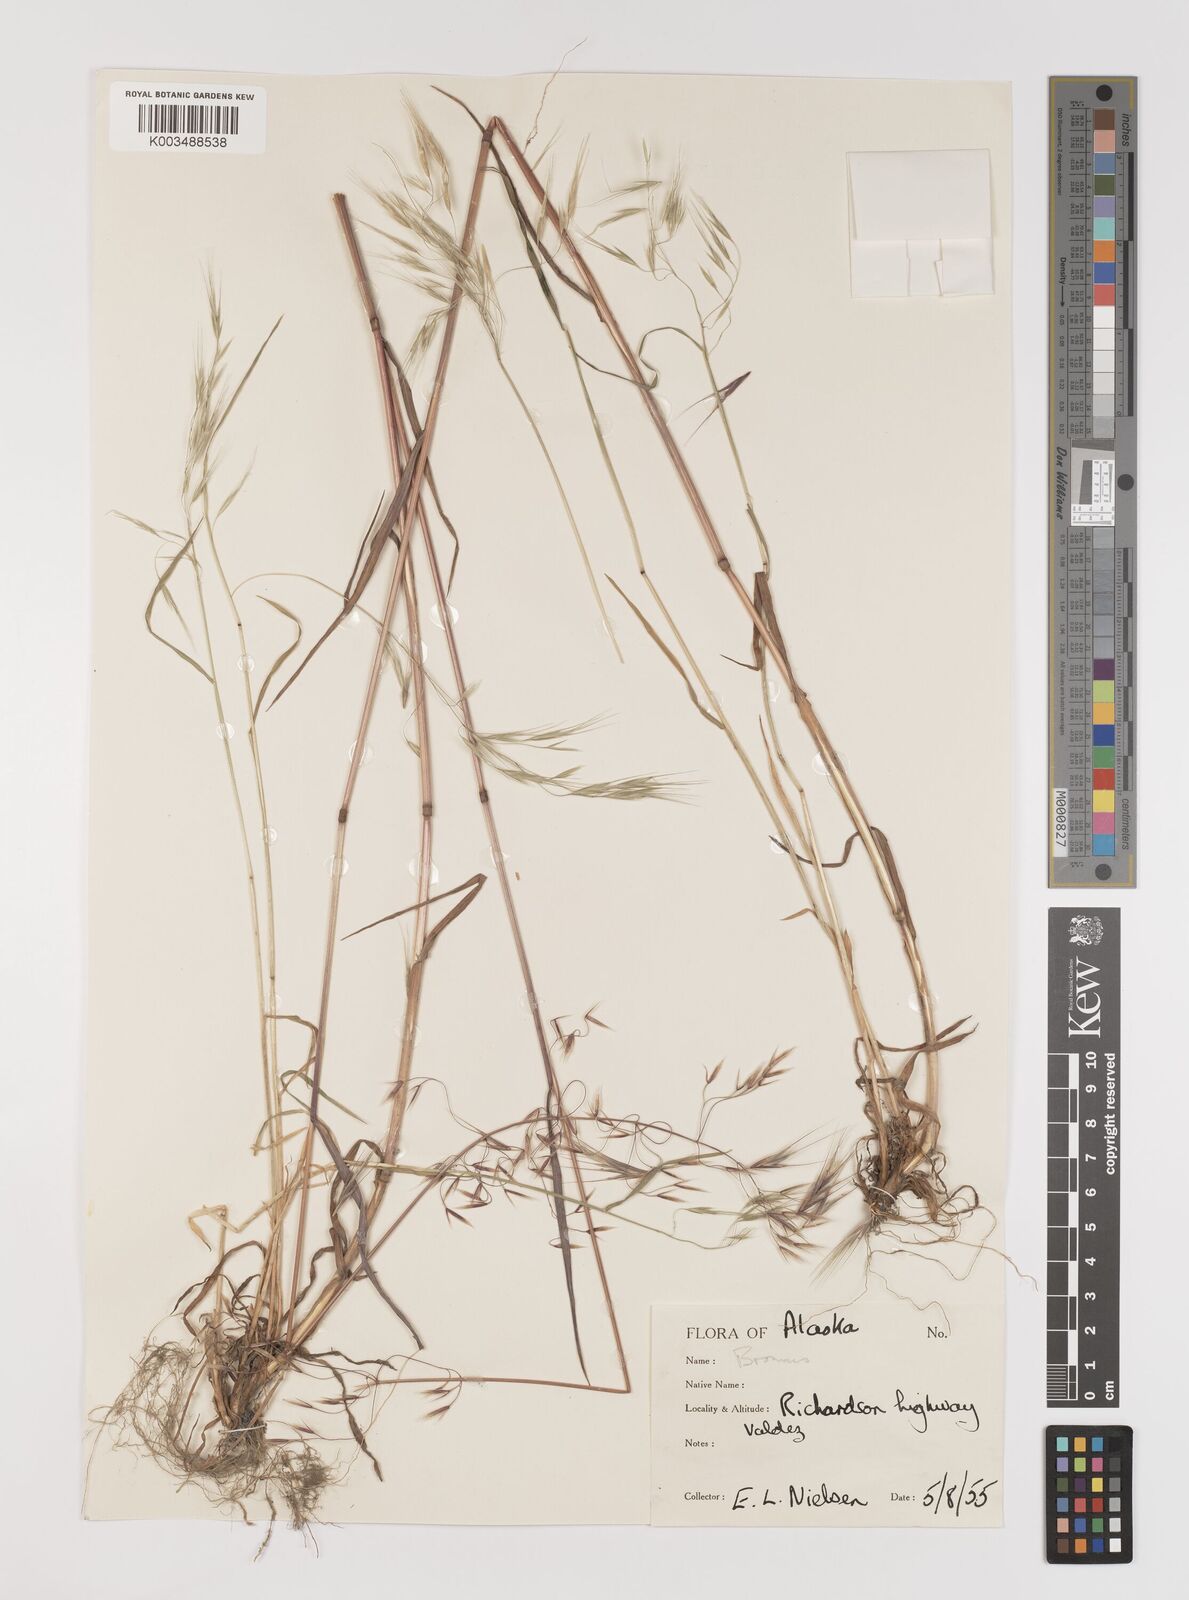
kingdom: Plantae
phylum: Tracheophyta
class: Liliopsida
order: Poales
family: Poaceae
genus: Bromus
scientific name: Bromus tectorum
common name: Cheatgrass
